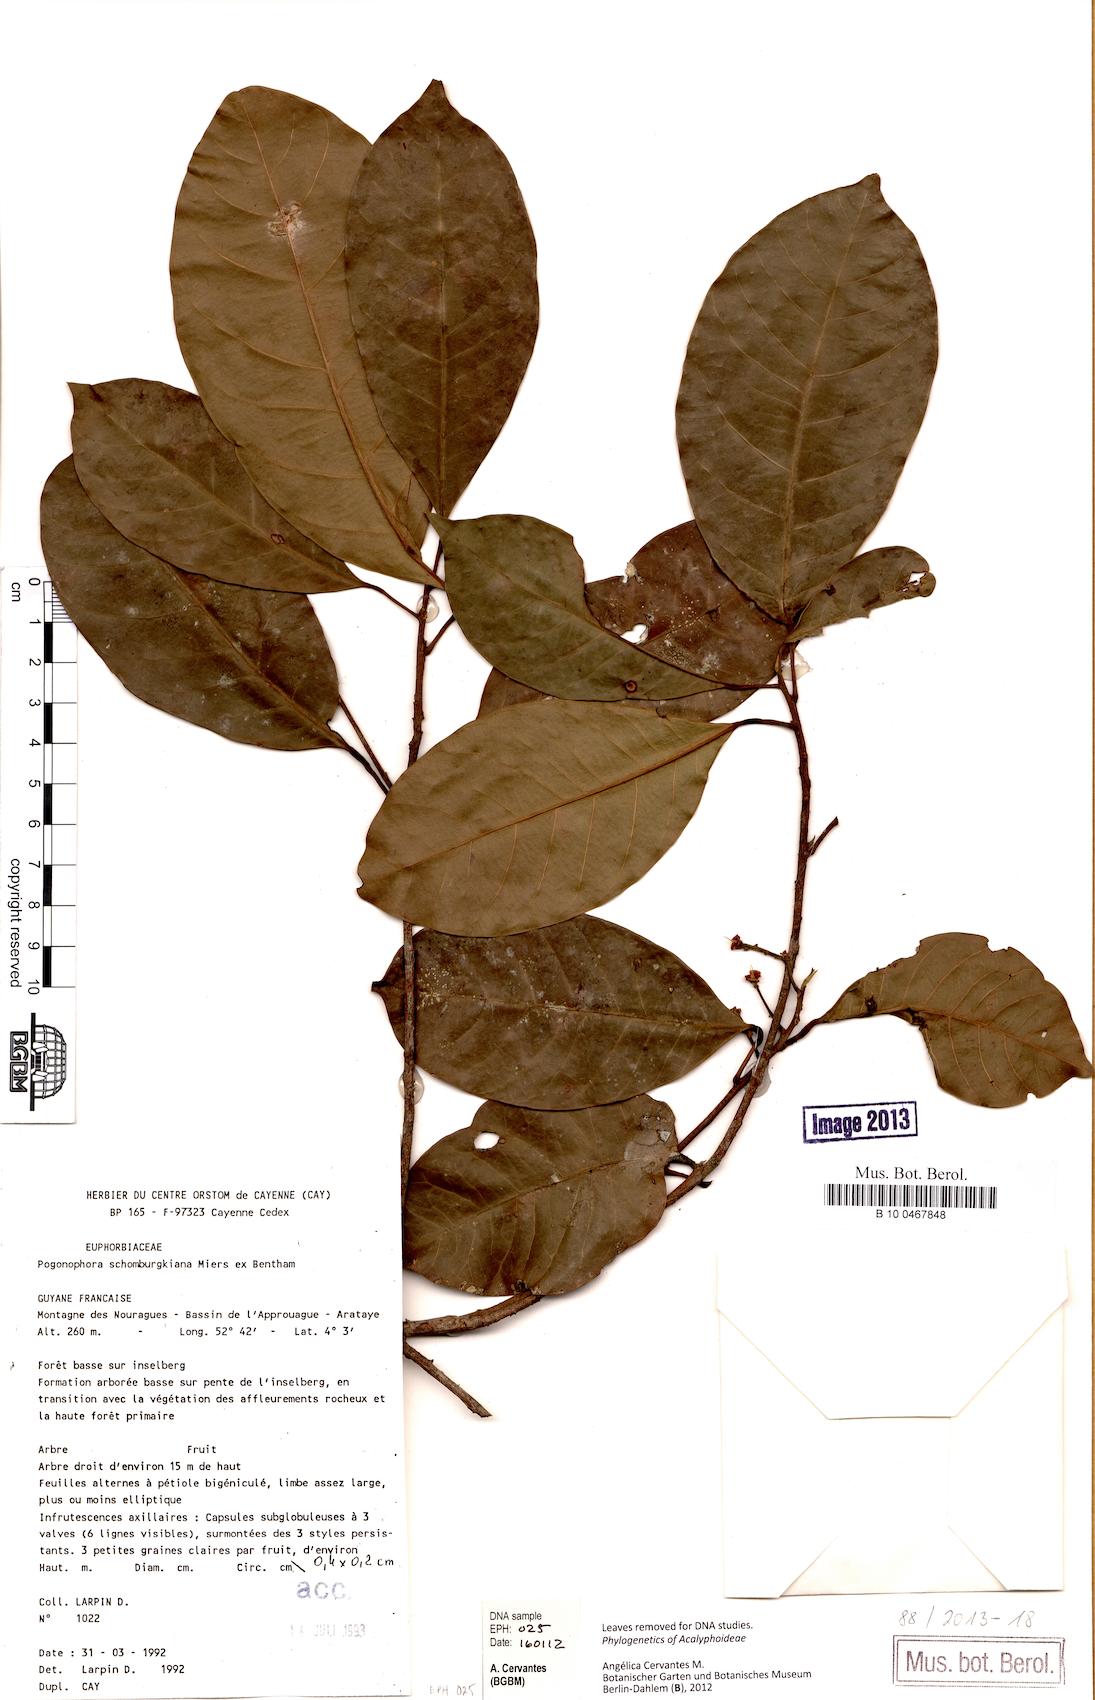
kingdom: Plantae
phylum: Tracheophyta
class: Magnoliopsida
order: Malpighiales
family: Peraceae
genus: Pogonophora
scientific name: Pogonophora schomburgkiana
